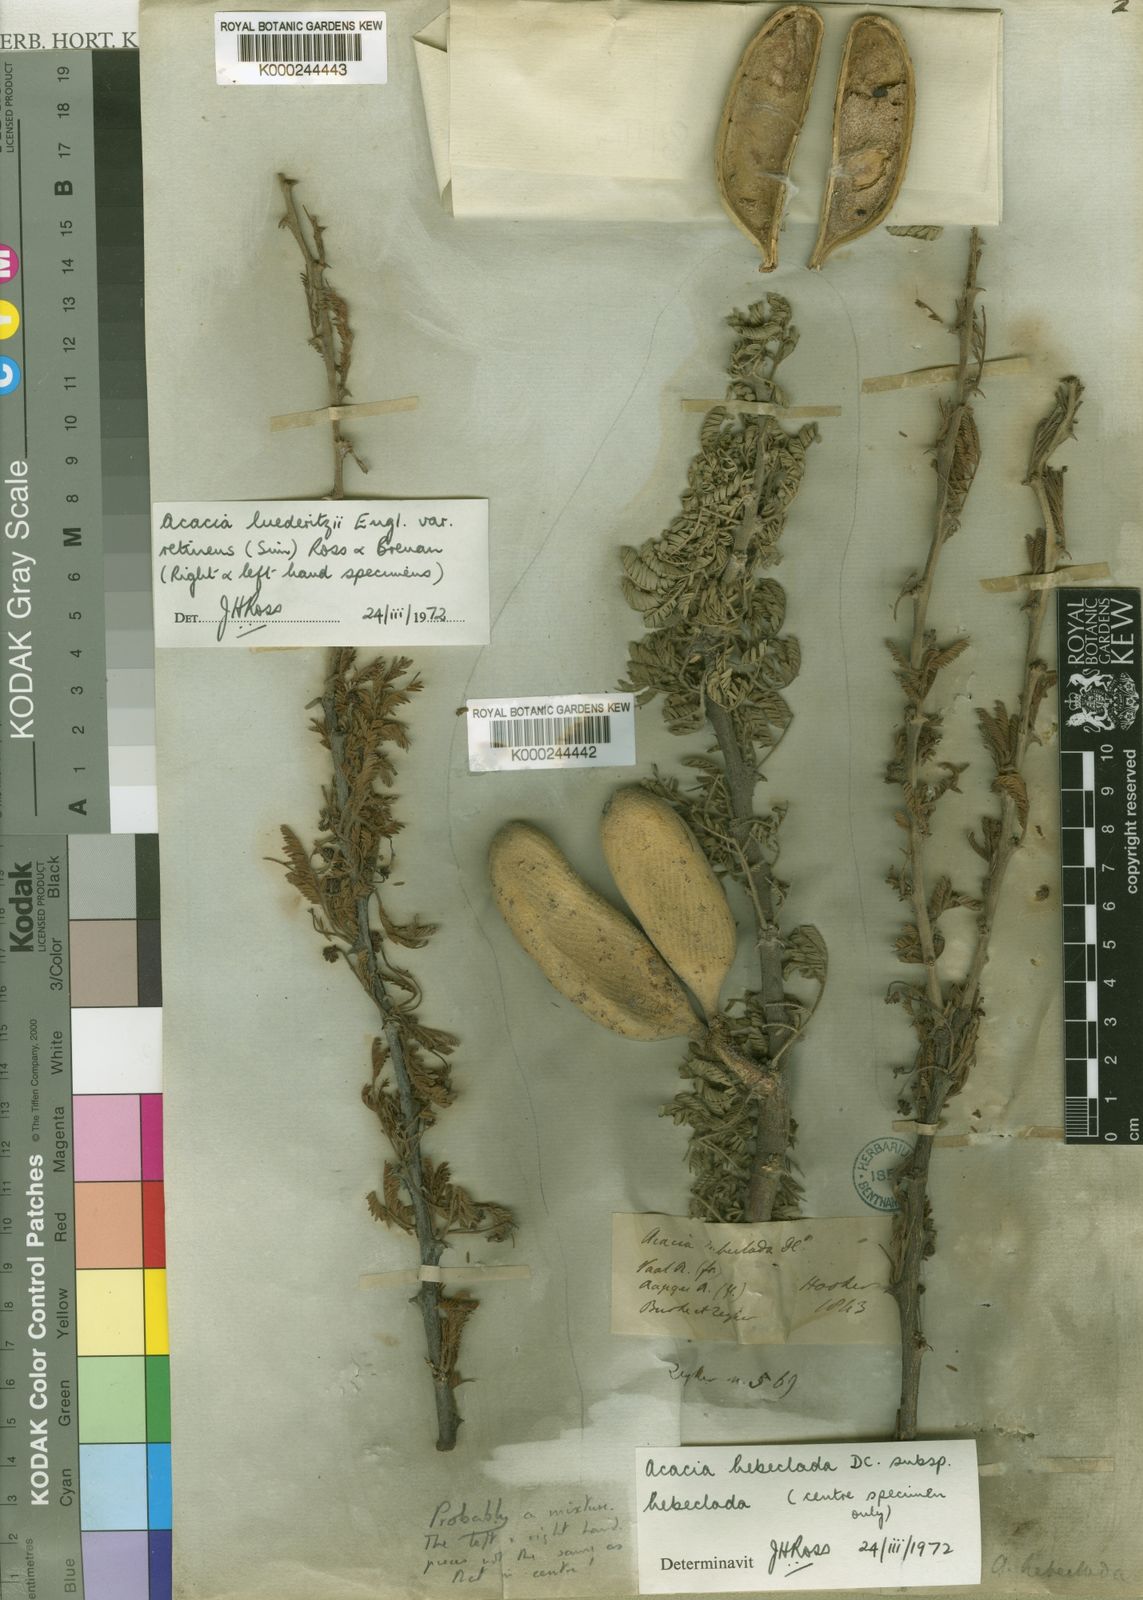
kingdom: Plantae
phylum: Tracheophyta
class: Magnoliopsida
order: Fabales
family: Fabaceae
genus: Vachellia
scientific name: Vachellia hebeclada
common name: Candle thorn
